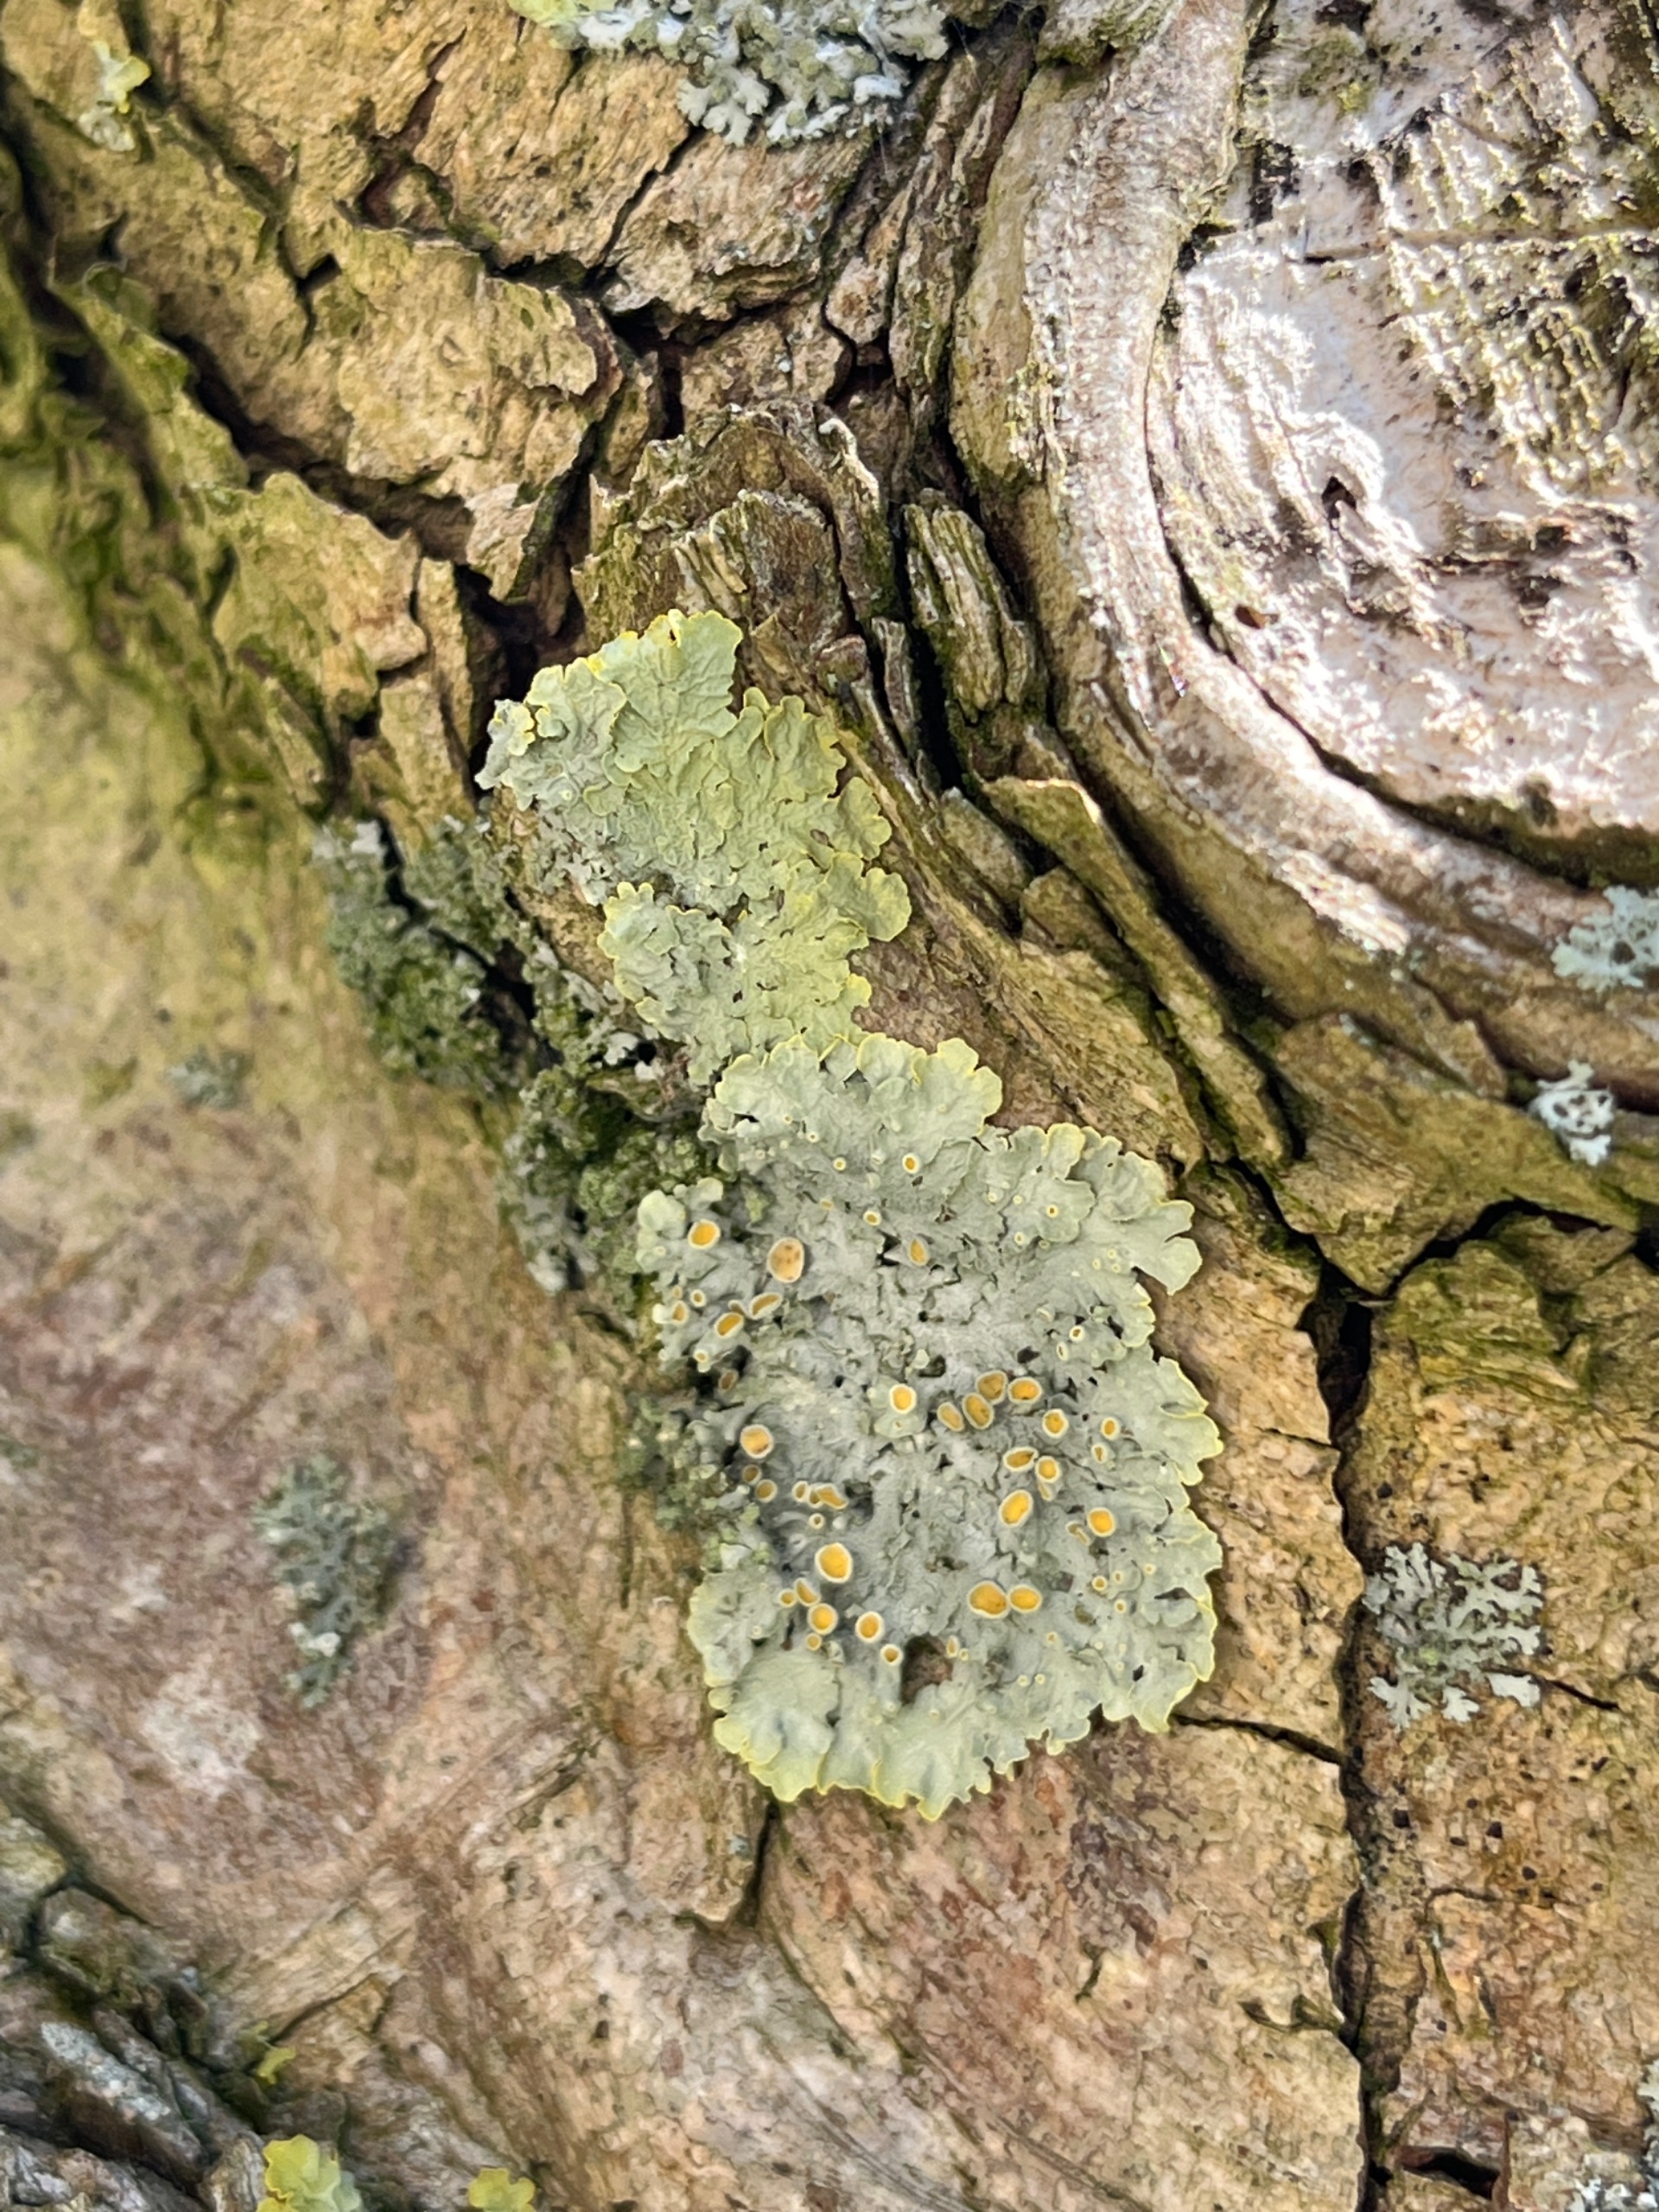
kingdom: Fungi
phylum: Ascomycota
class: Lecanoromycetes
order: Teloschistales
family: Teloschistaceae
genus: Xanthoria
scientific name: Xanthoria parietina
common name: Almindelig væggelav
